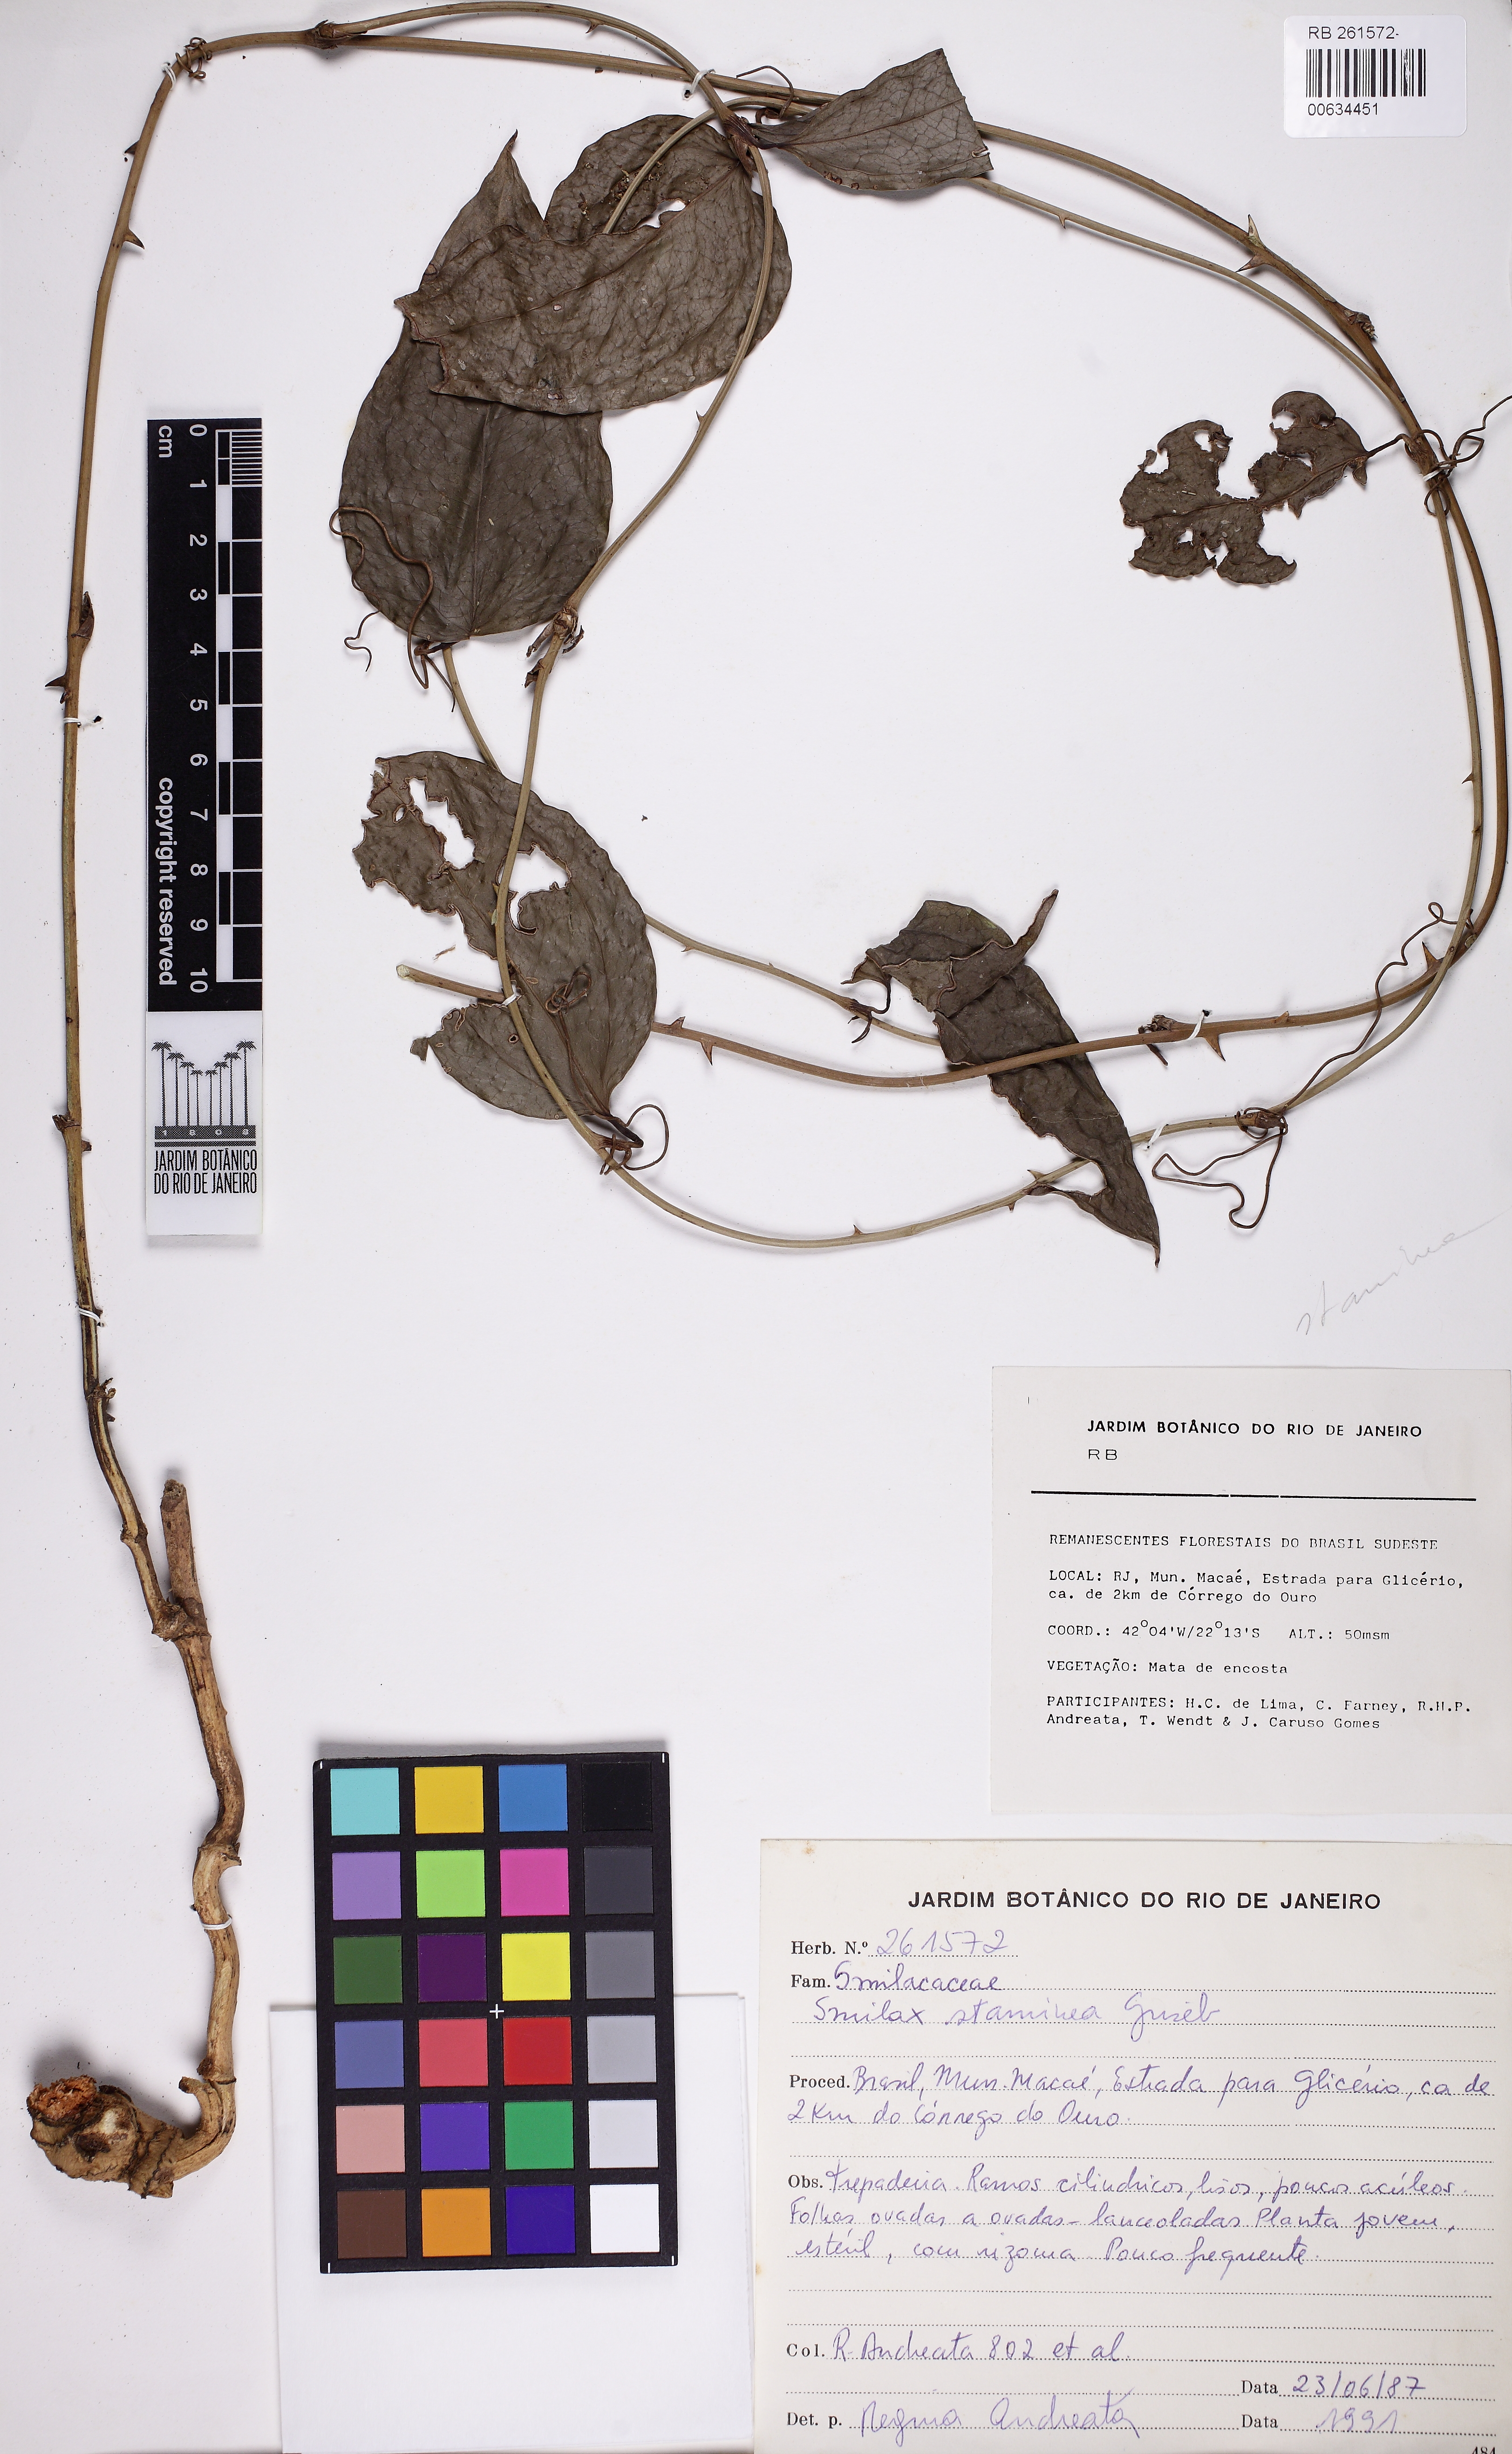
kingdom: Plantae
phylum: Tracheophyta
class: Liliopsida
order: Liliales
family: Smilacaceae
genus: Smilax
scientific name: Smilax domingensis
